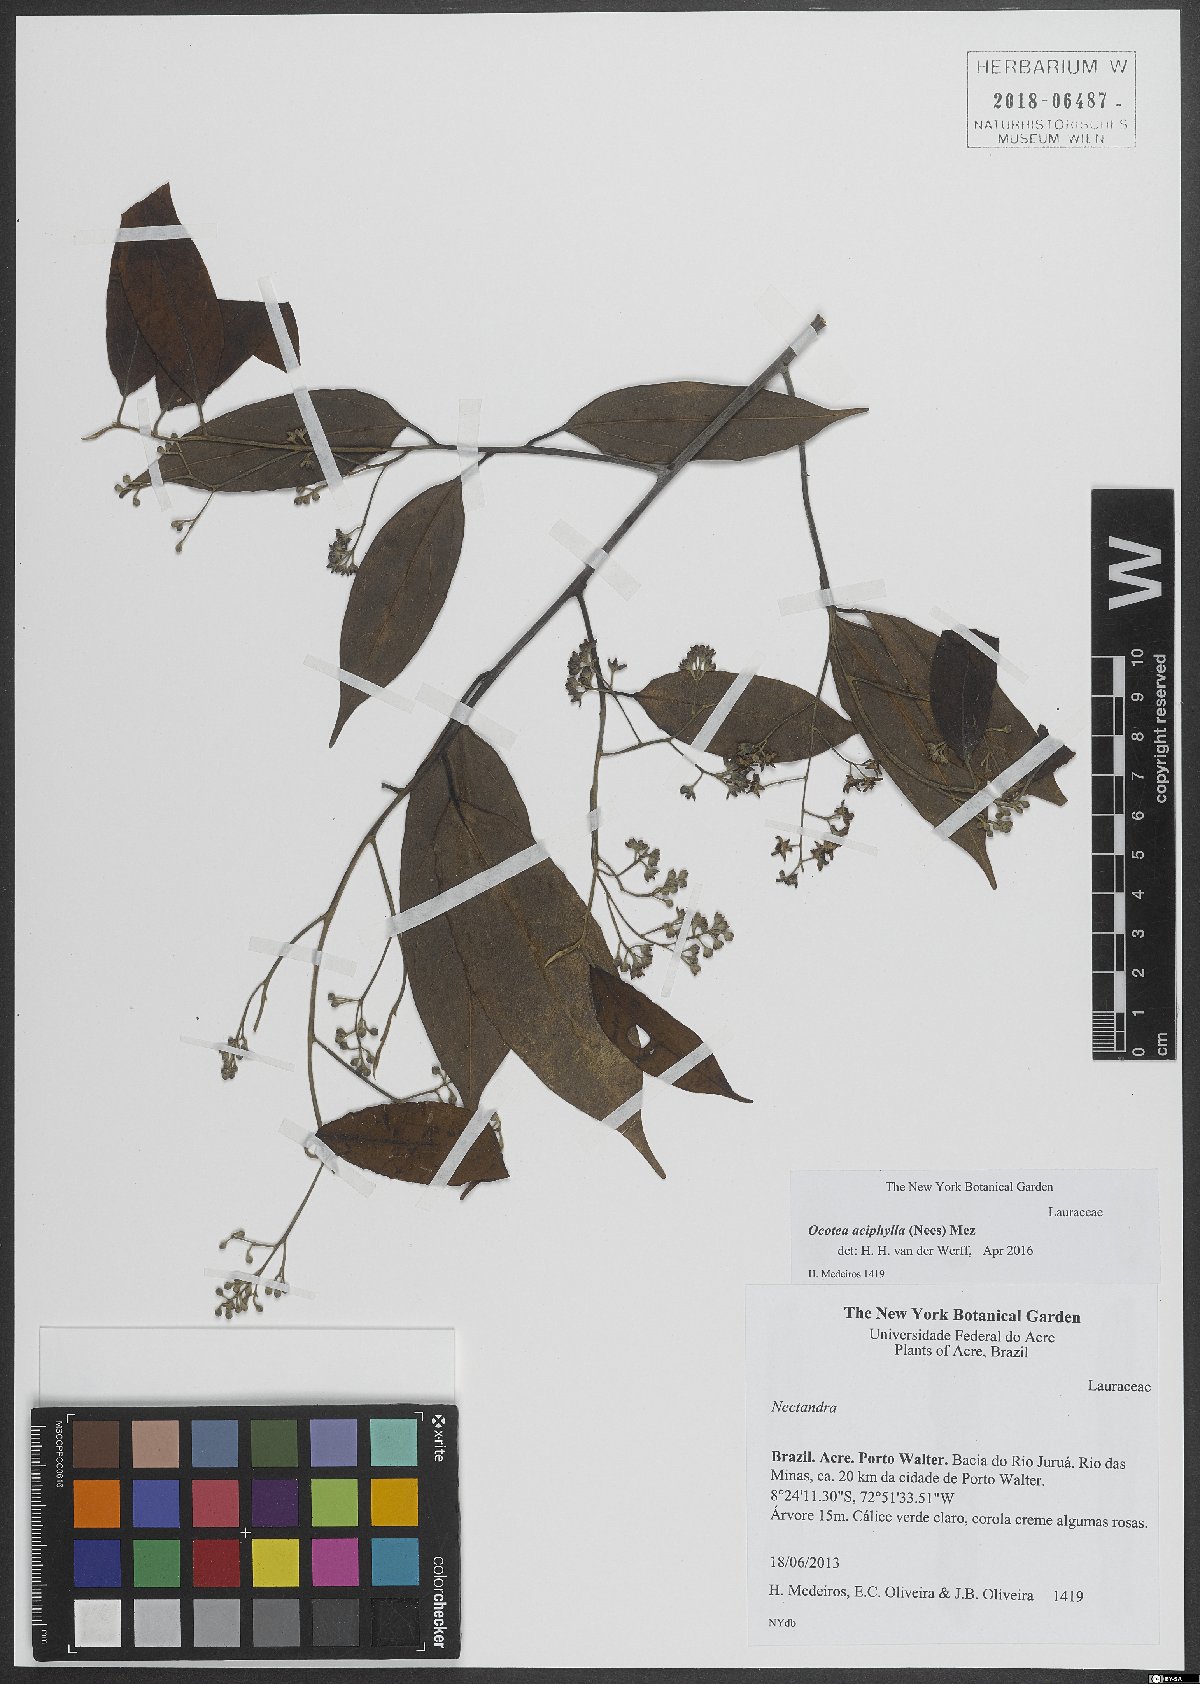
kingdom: Plantae
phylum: Tracheophyta
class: Magnoliopsida
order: Laurales
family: Lauraceae
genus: Ocotea
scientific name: Ocotea aciphylla
